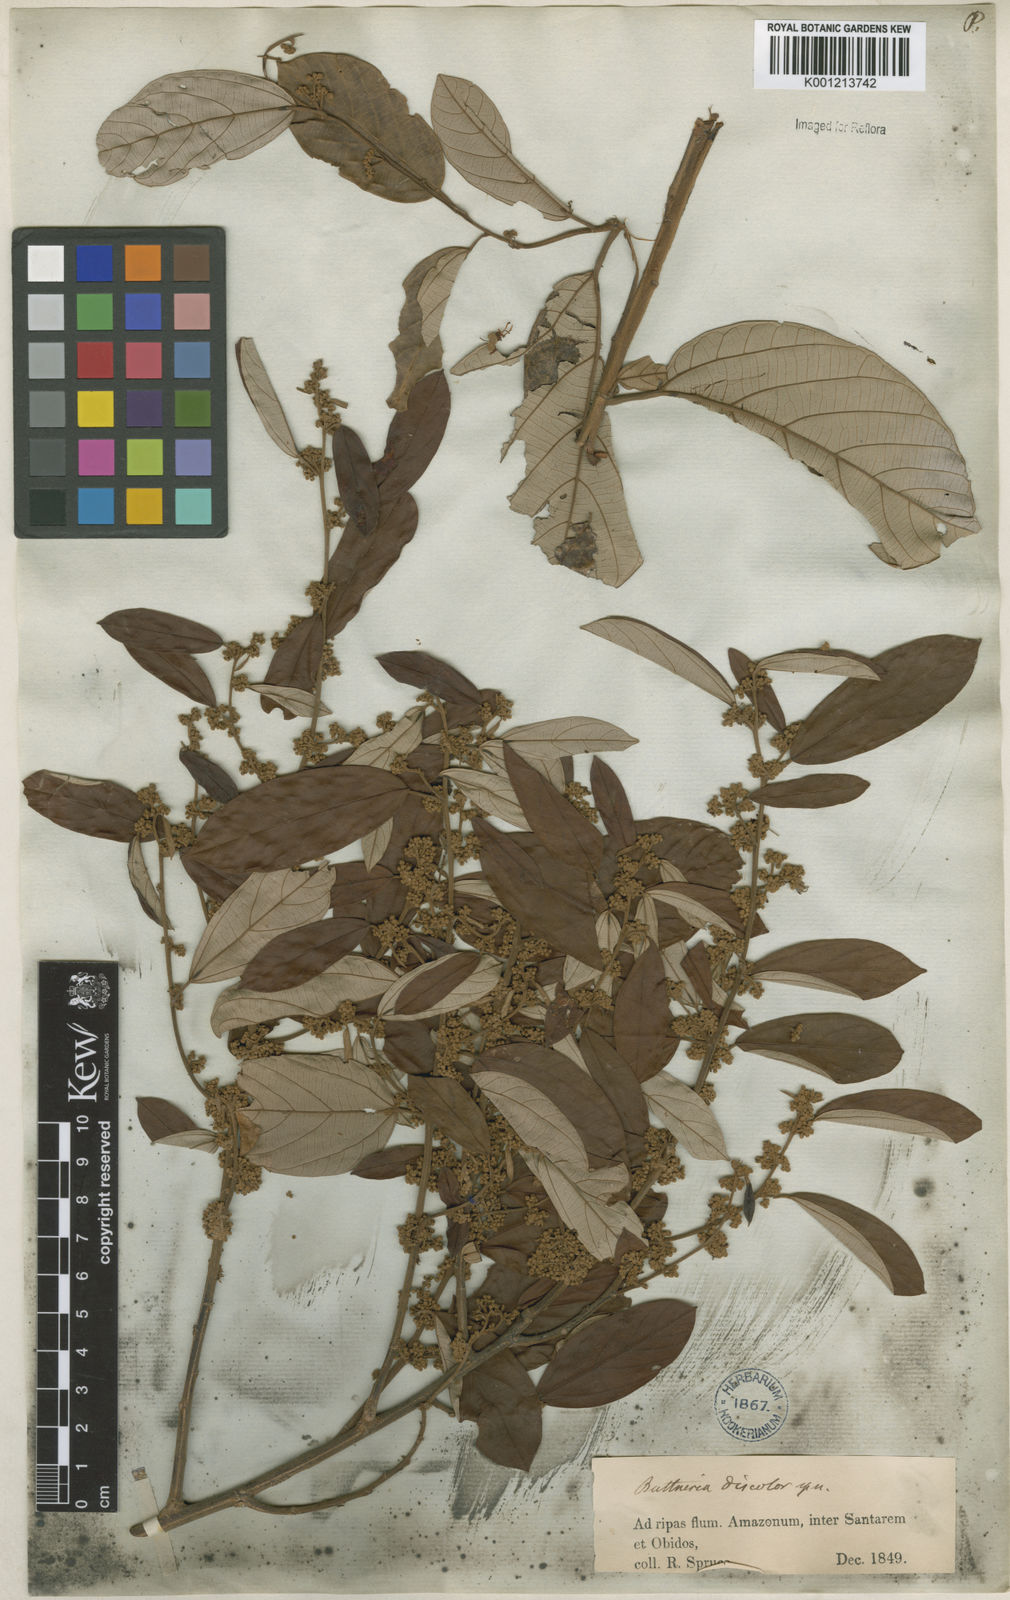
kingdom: Plantae
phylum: Tracheophyta
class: Magnoliopsida
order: Malvales
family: Malvaceae
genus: Byttneria
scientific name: Byttneria fulva
